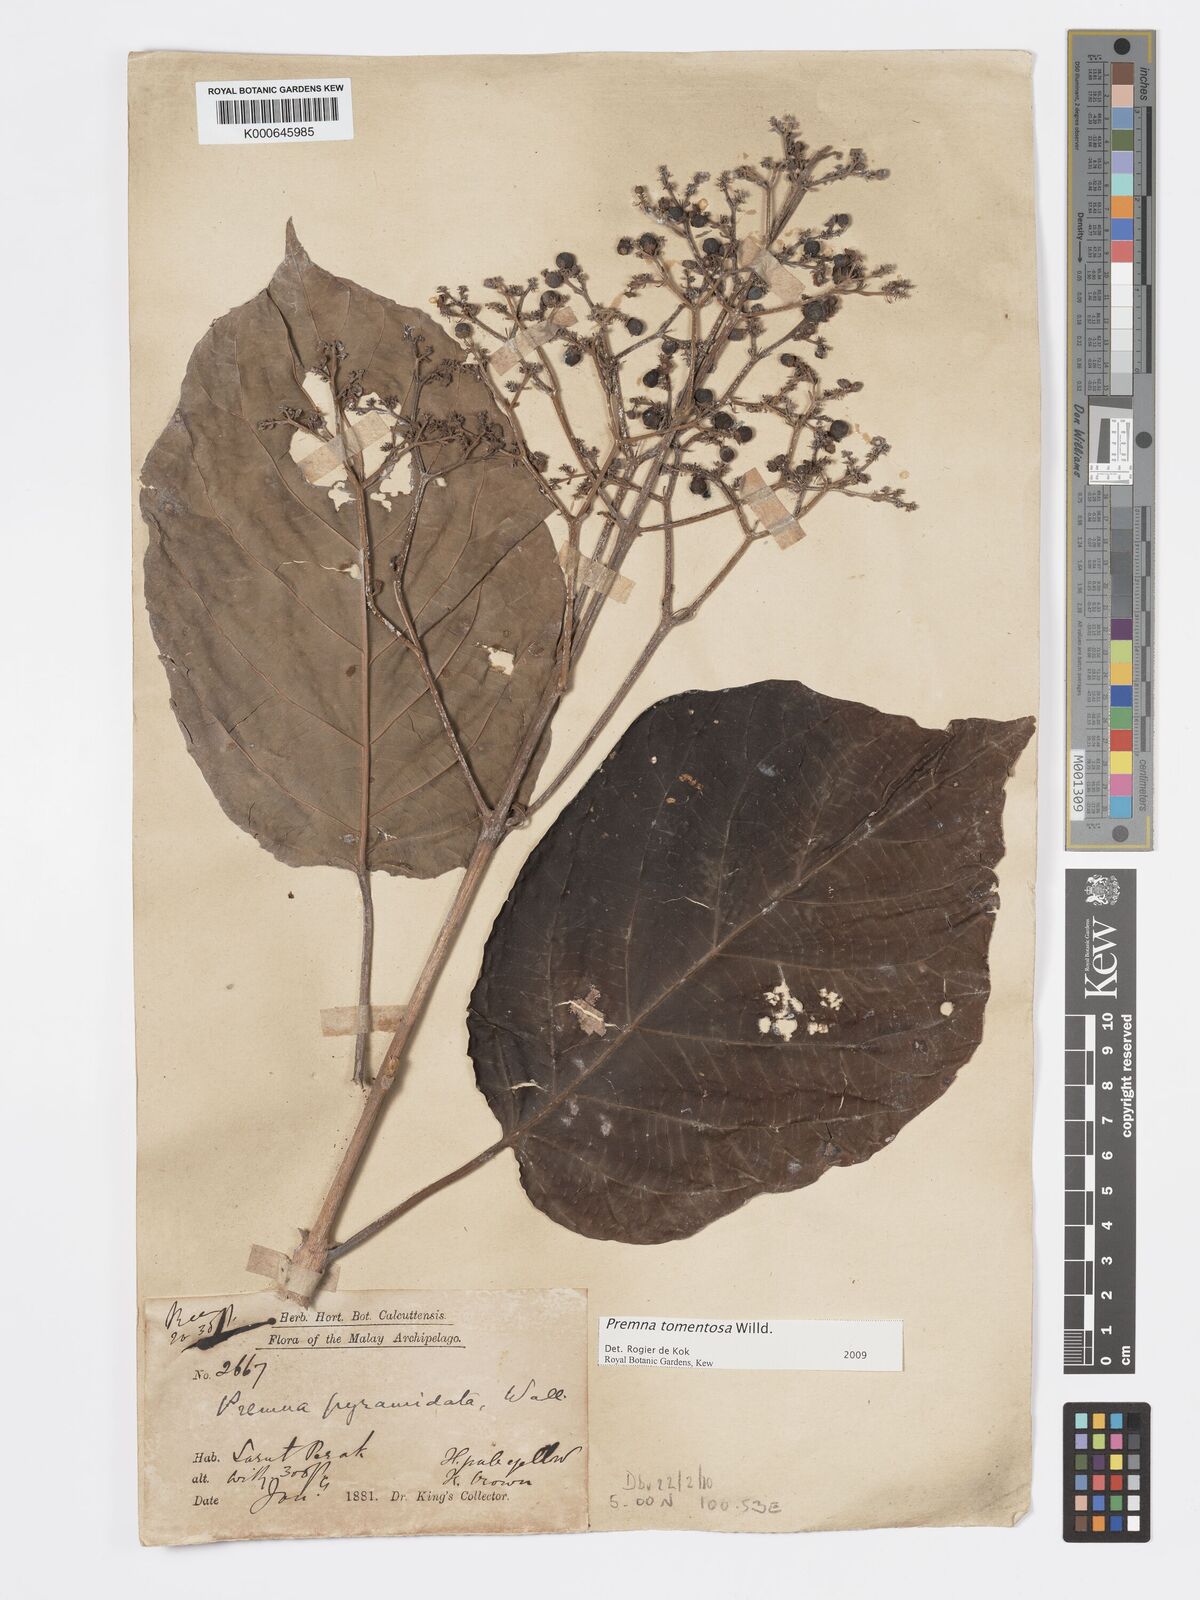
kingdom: Plantae
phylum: Tracheophyta
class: Magnoliopsida
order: Lamiales
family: Lamiaceae
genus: Premna
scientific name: Premna tomentosa
